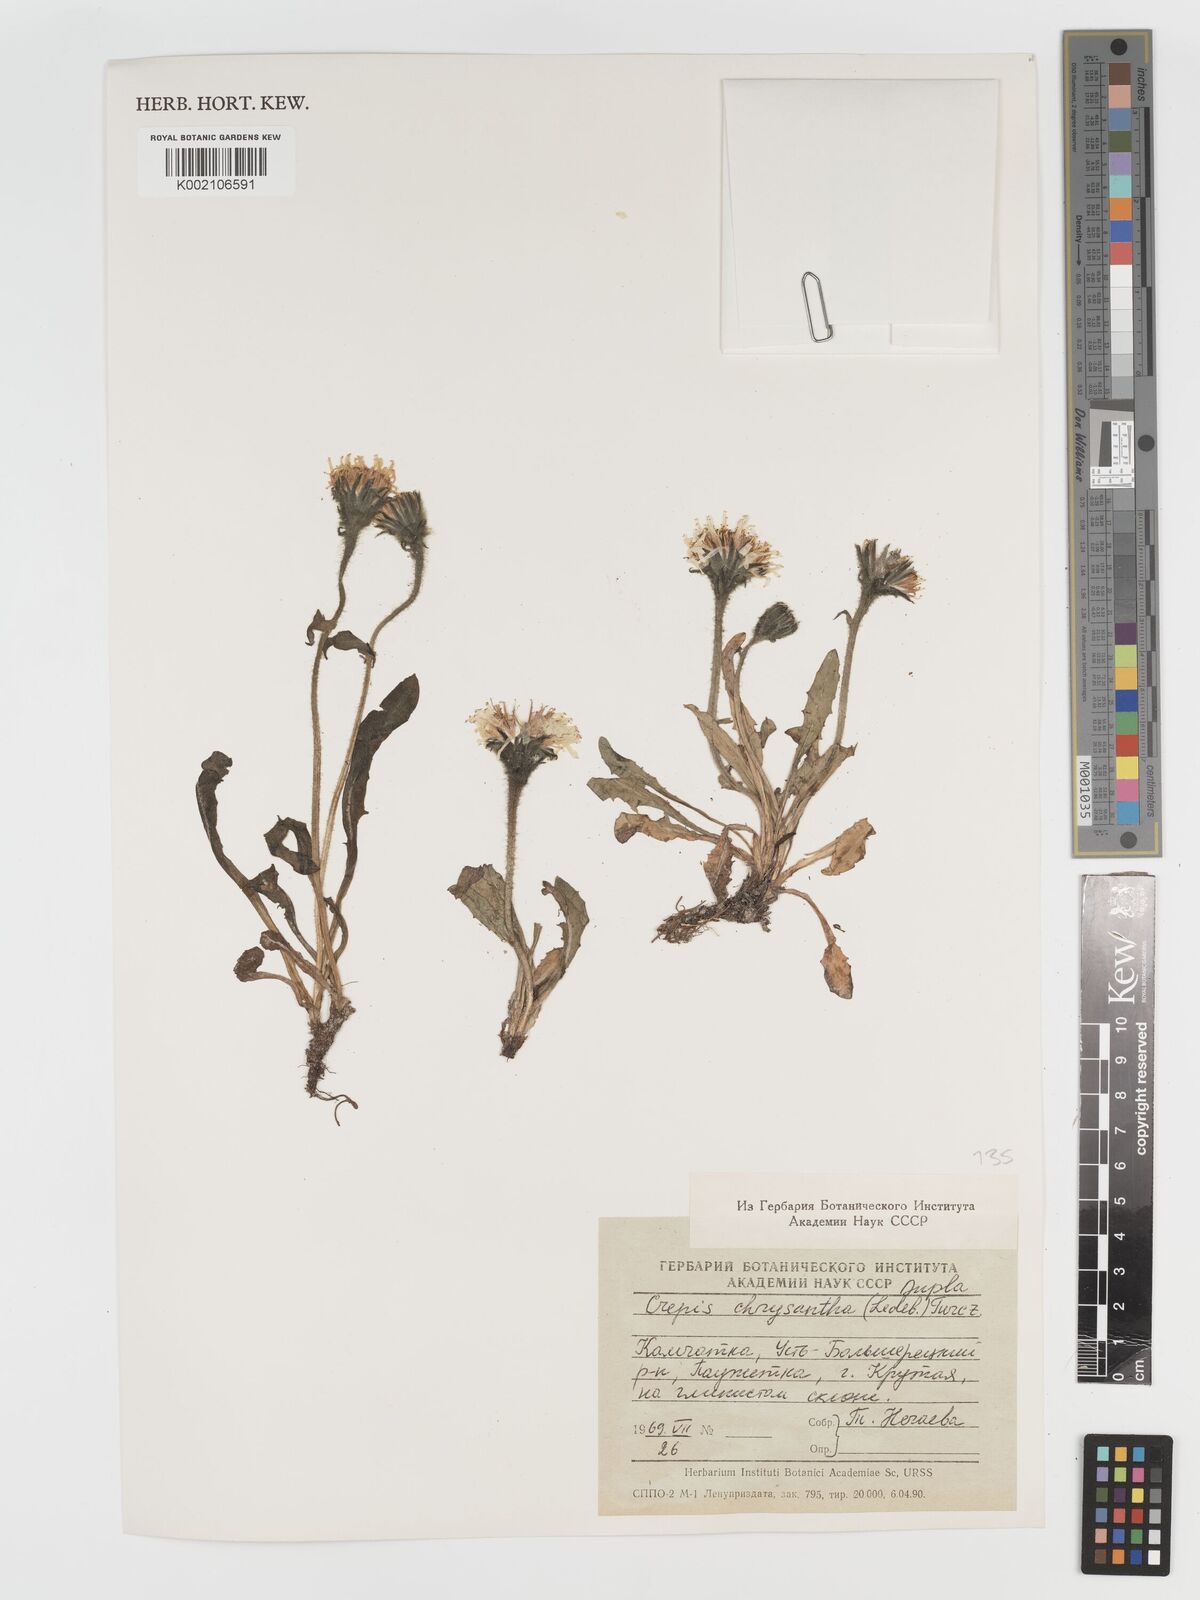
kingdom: Plantae
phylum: Tracheophyta
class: Magnoliopsida
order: Asterales
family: Asteraceae
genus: Crepis
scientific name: Crepis chrysantha
